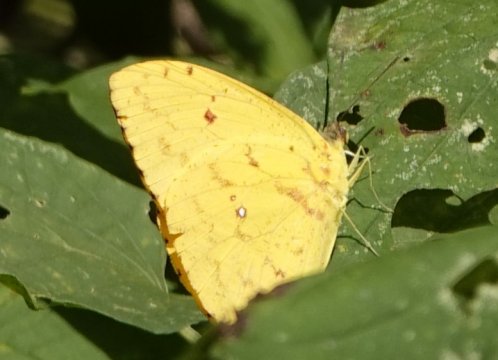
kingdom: Animalia
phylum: Arthropoda
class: Insecta
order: Lepidoptera
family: Pieridae
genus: Phoebis
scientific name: Phoebis argante
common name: Apricot Sulphur
